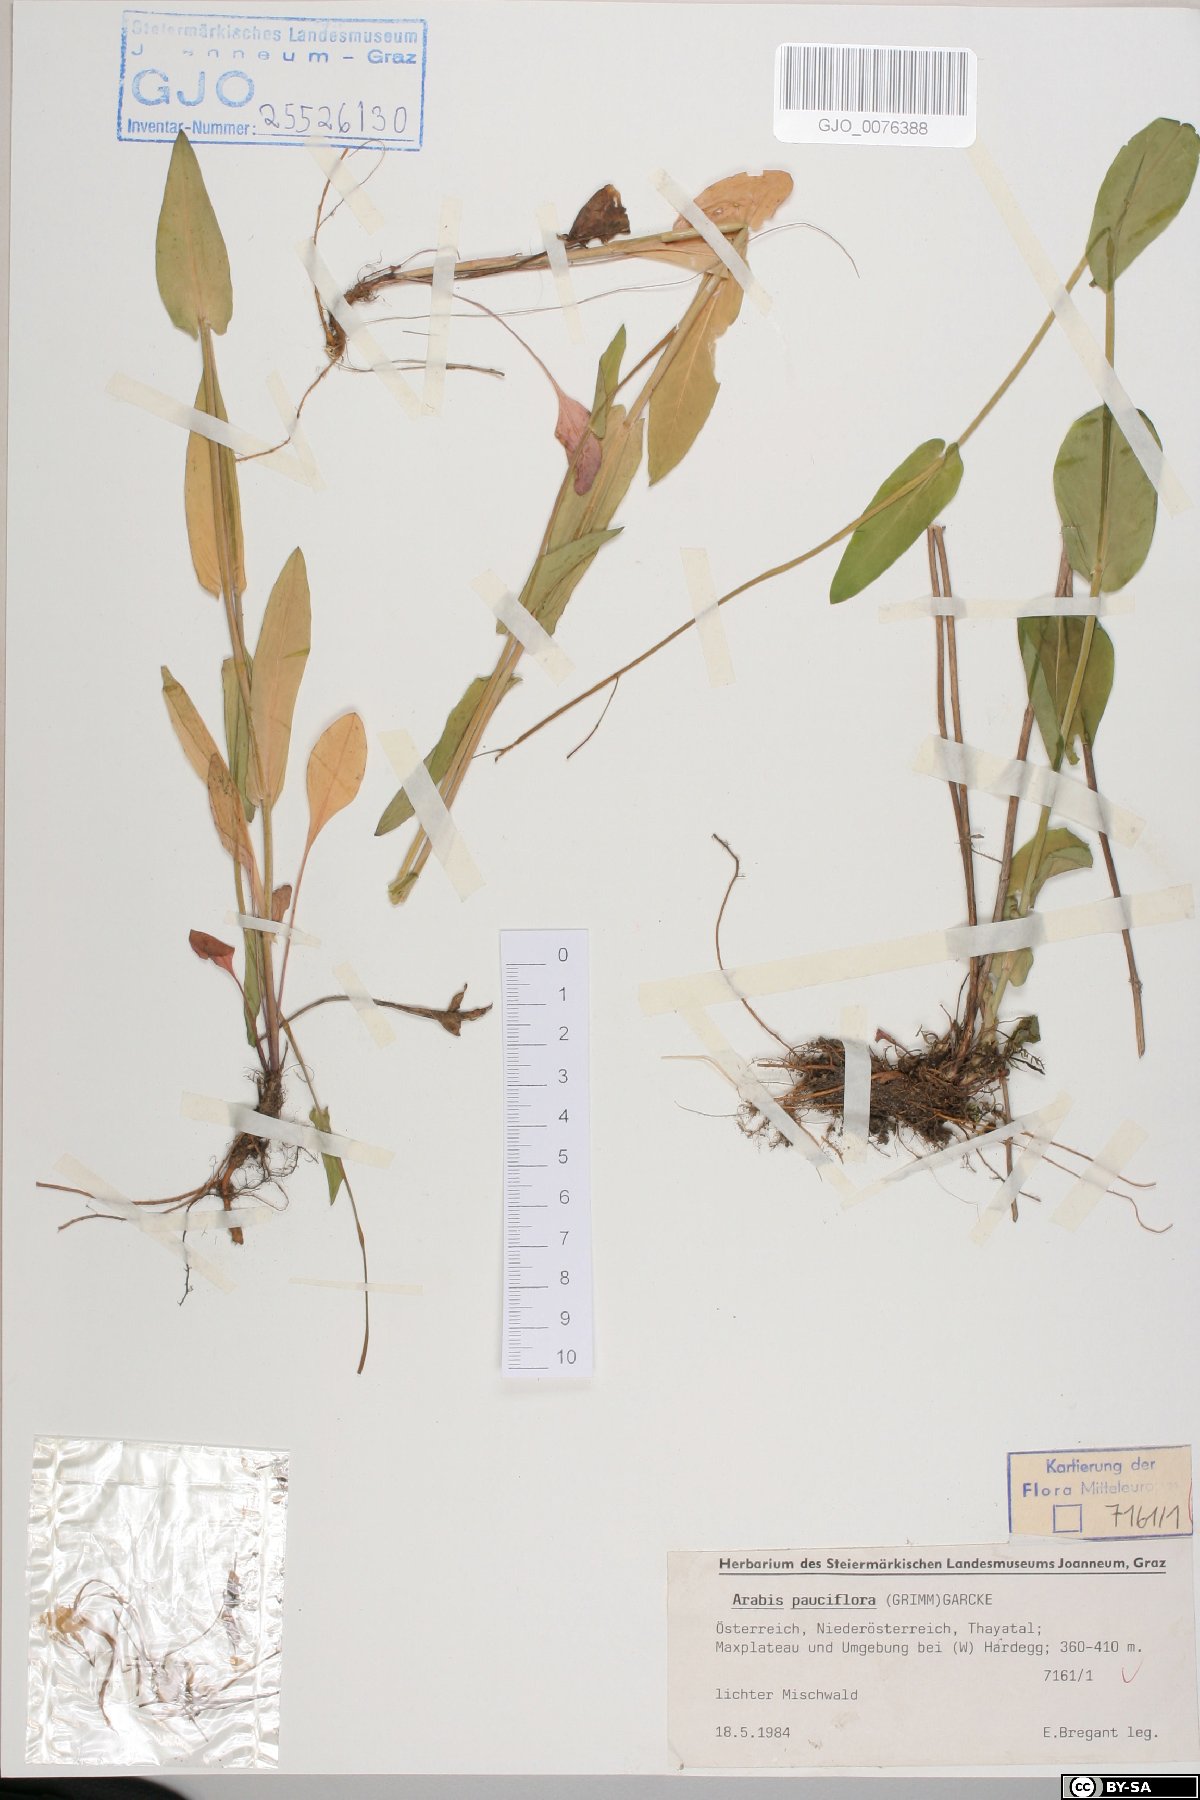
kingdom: Plantae
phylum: Tracheophyta
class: Magnoliopsida
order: Brassicales
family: Brassicaceae
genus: Fourraea
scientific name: Fourraea alpina
